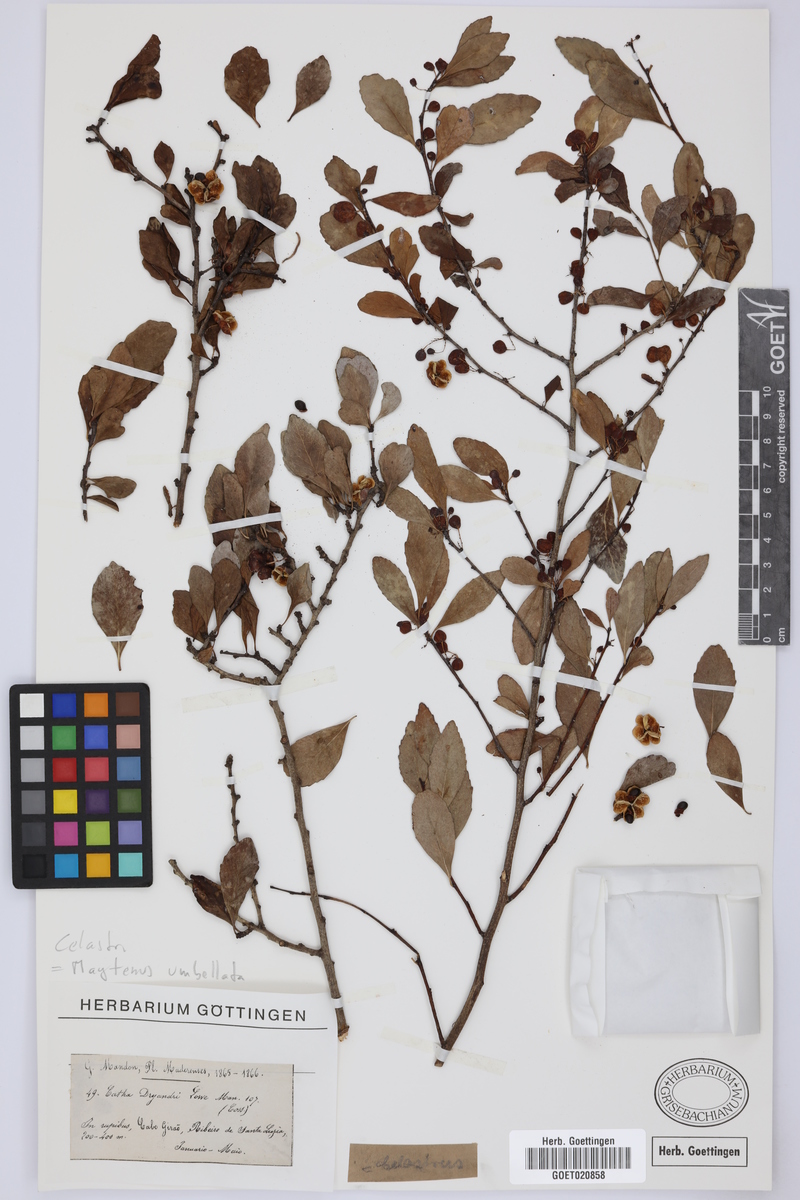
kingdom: Plantae
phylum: Tracheophyta
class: Magnoliopsida
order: Celastrales
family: Celastraceae
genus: Gymnosporia
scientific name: Gymnosporia dryandri
